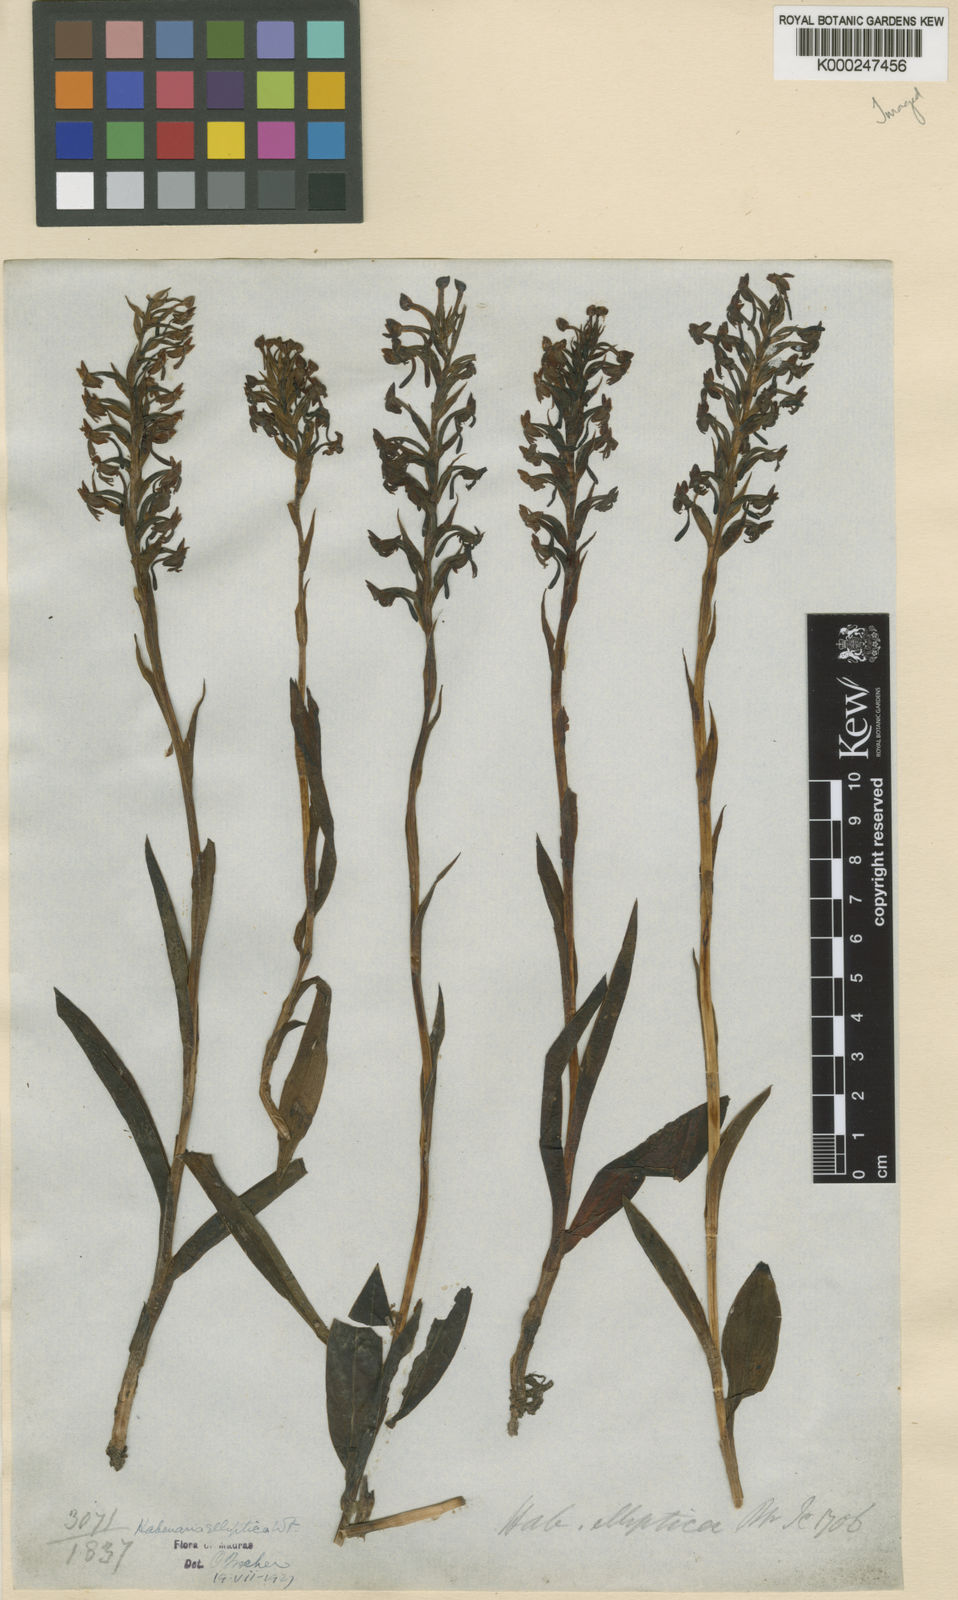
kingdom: Plantae
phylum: Tracheophyta
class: Liliopsida
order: Asparagales
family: Orchidaceae
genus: Habenaria
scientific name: Habenaria elliptica
